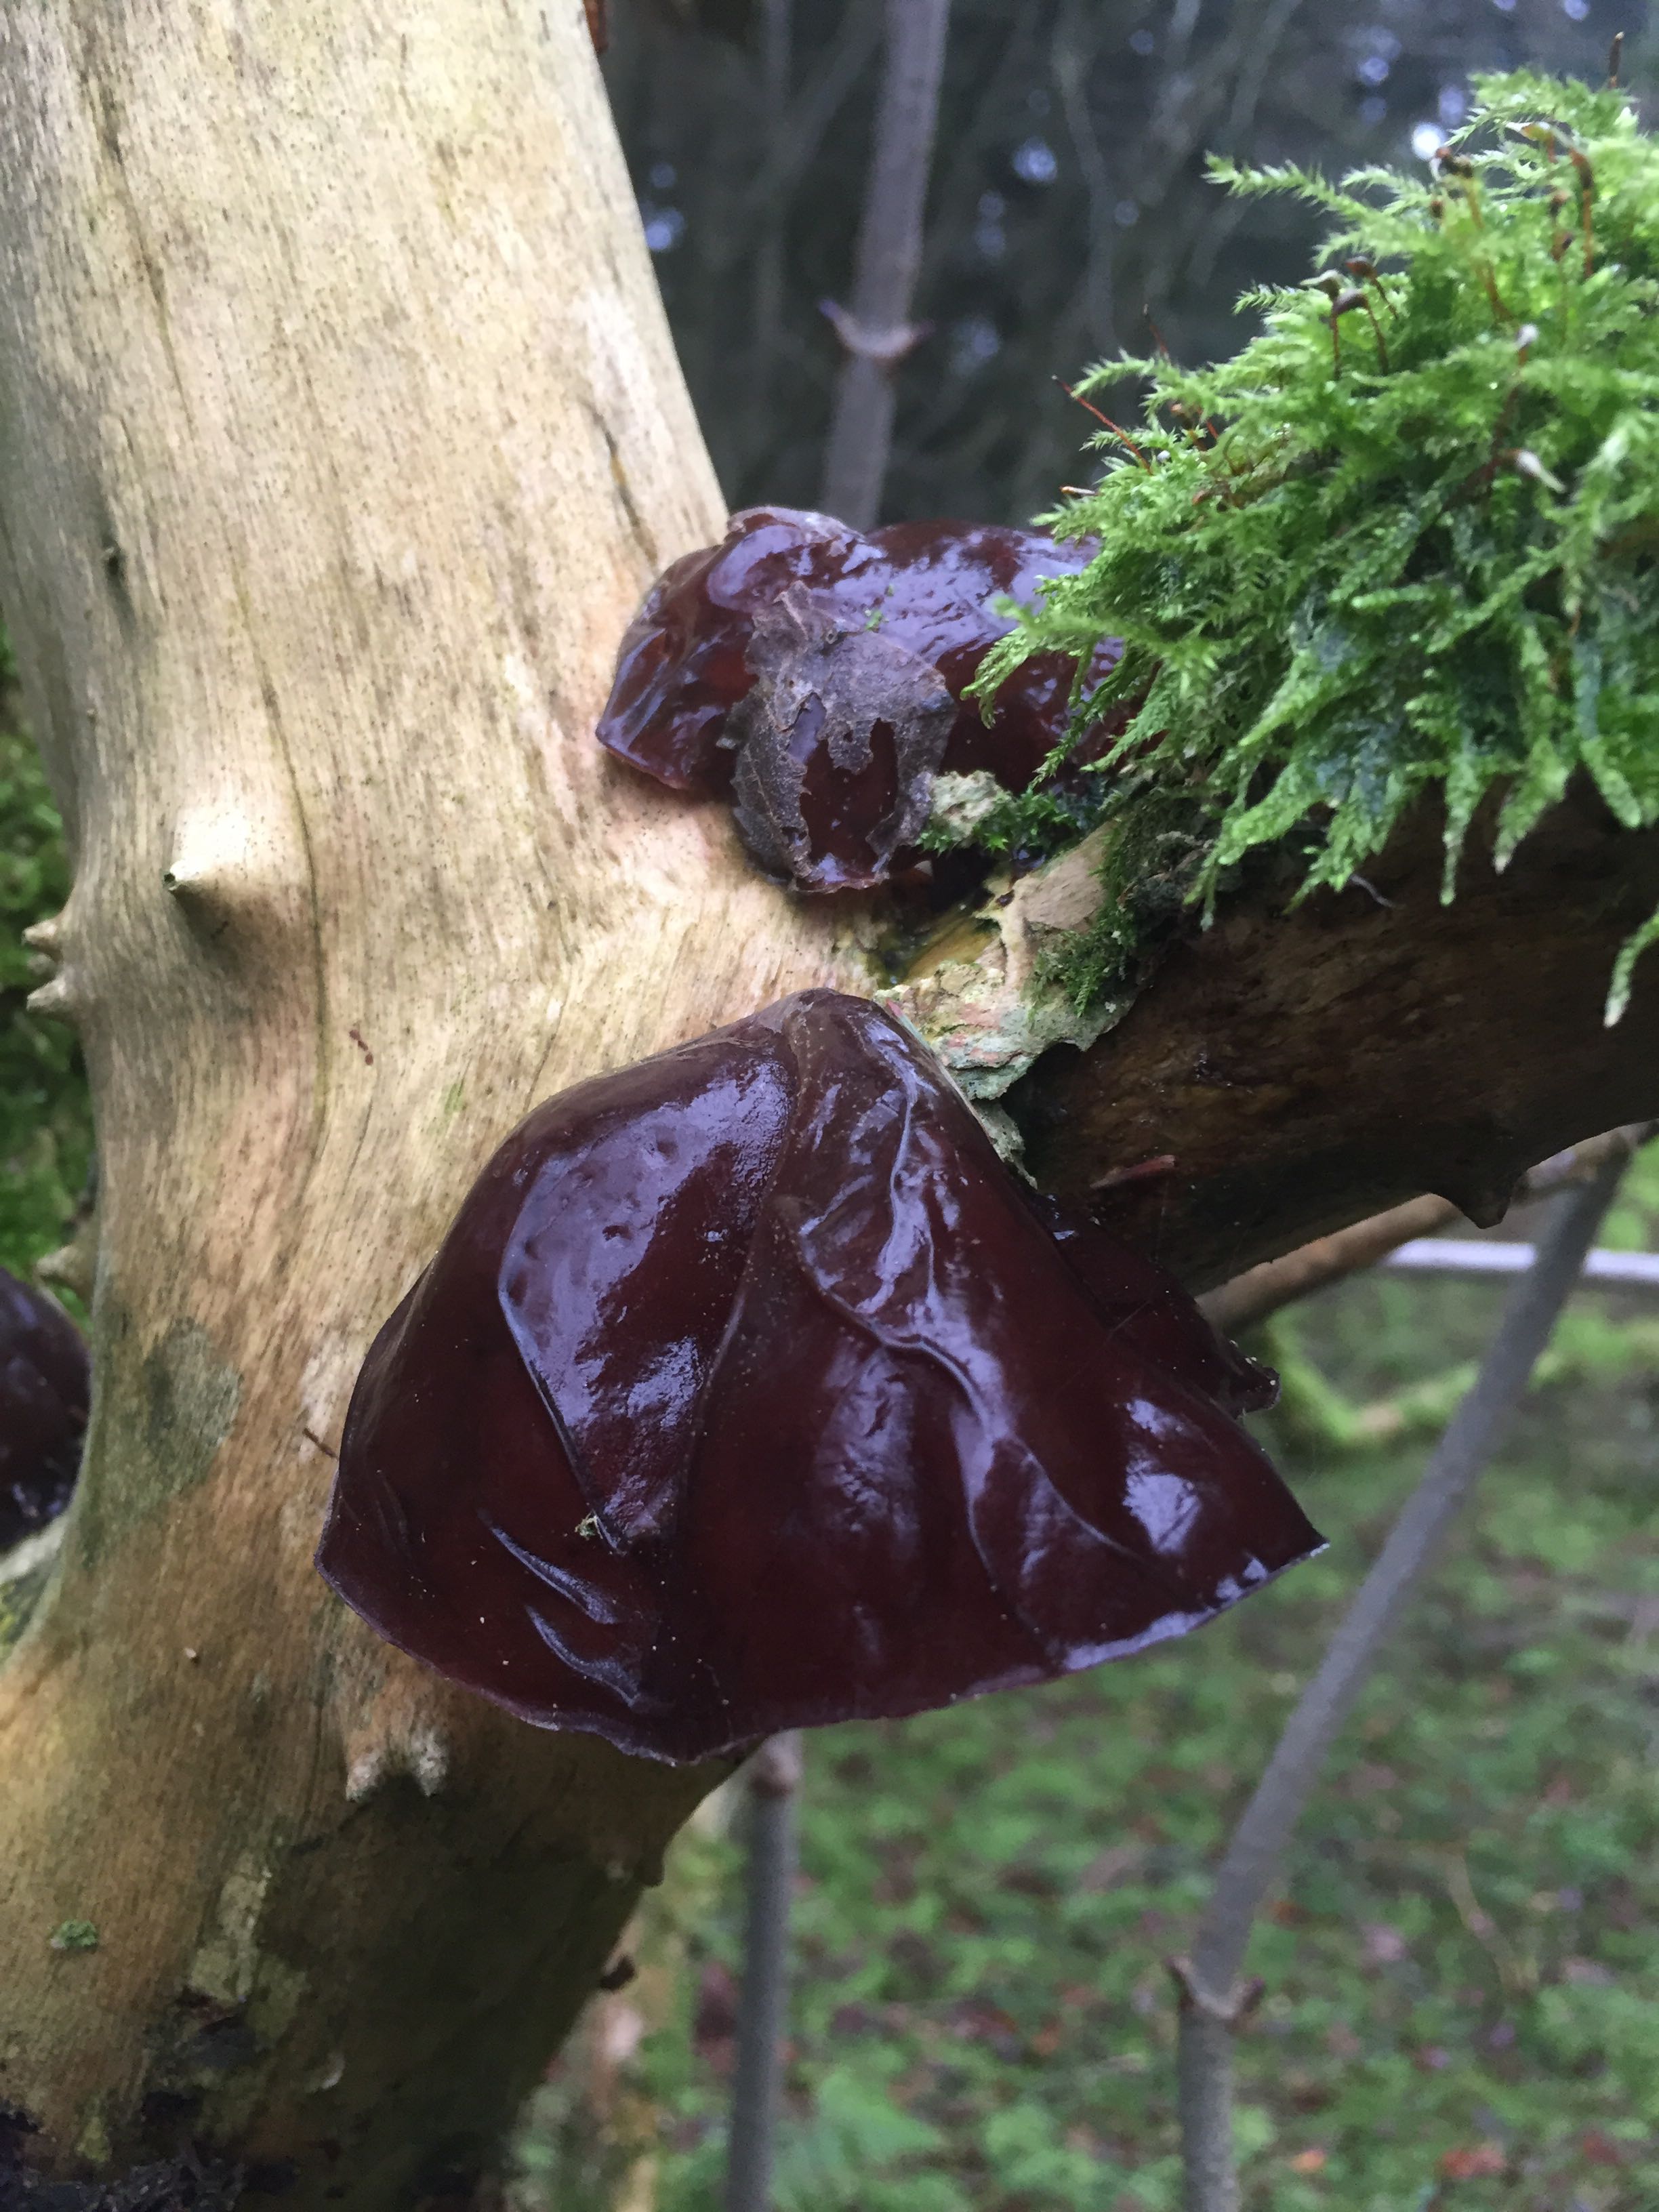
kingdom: Fungi
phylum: Basidiomycota
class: Agaricomycetes
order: Auriculariales
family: Auriculariaceae
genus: Auricularia
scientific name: Auricularia auricula-judae
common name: almindelig judasøre
